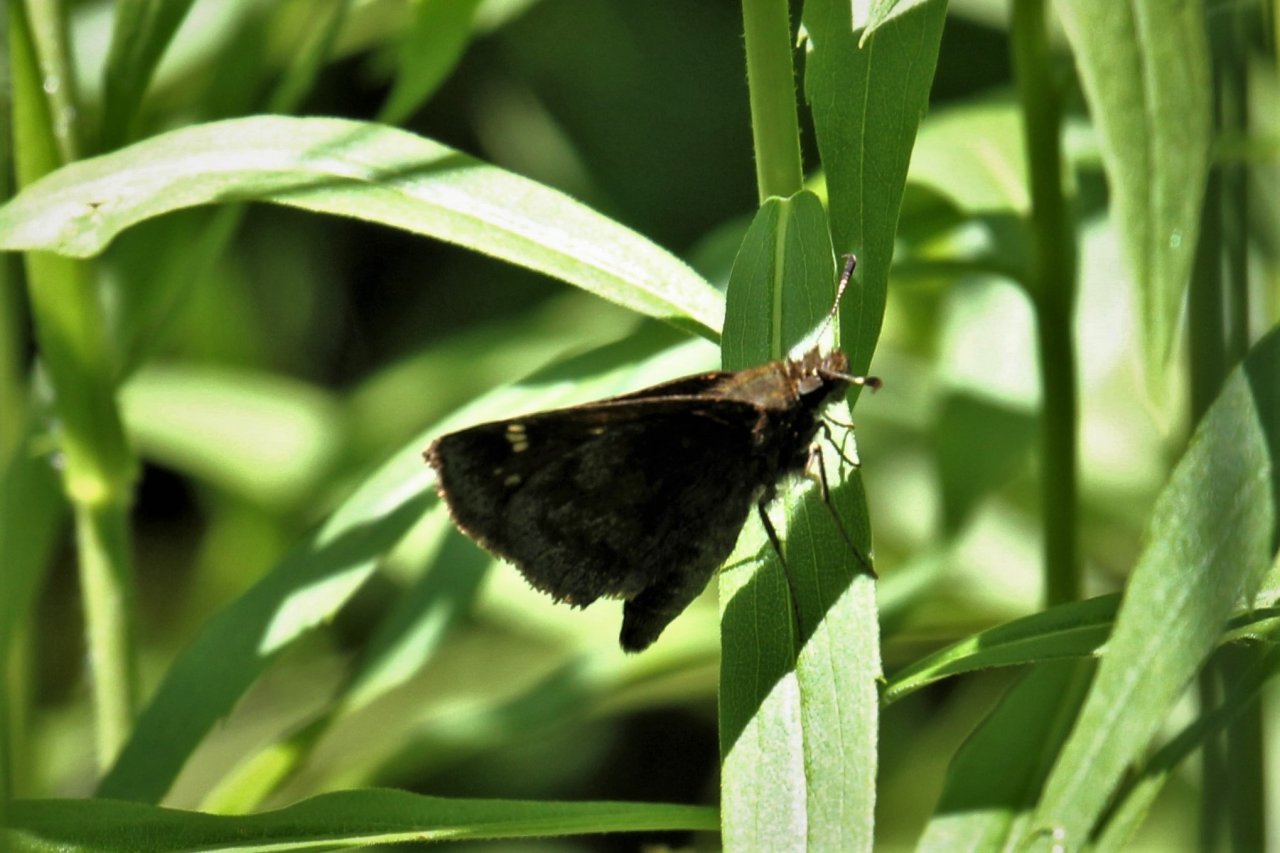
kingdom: Animalia
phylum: Arthropoda
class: Insecta
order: Lepidoptera
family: Hesperiidae
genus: Autochton
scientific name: Autochton
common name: Northern Cloudywing
